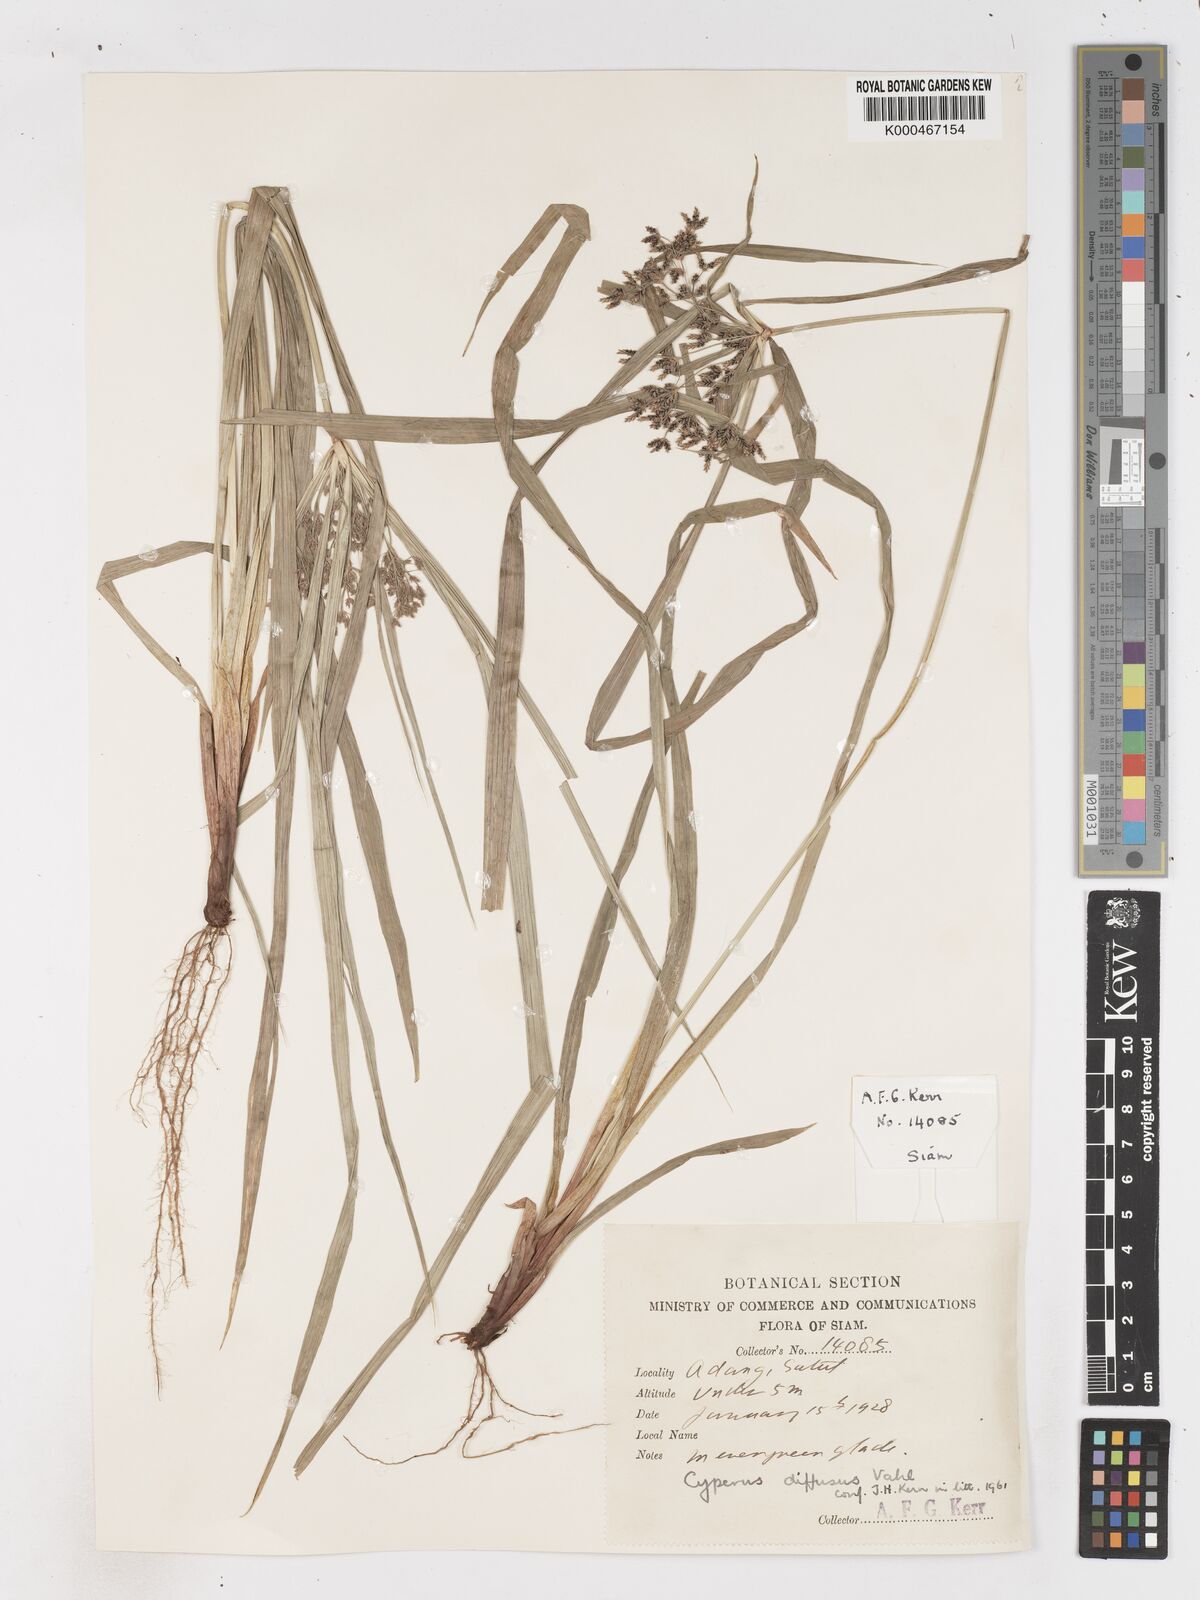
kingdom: Plantae
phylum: Tracheophyta
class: Liliopsida
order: Poales
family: Cyperaceae
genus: Cyperus
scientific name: Cyperus diffusus
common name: Dwarf umbrella grass
